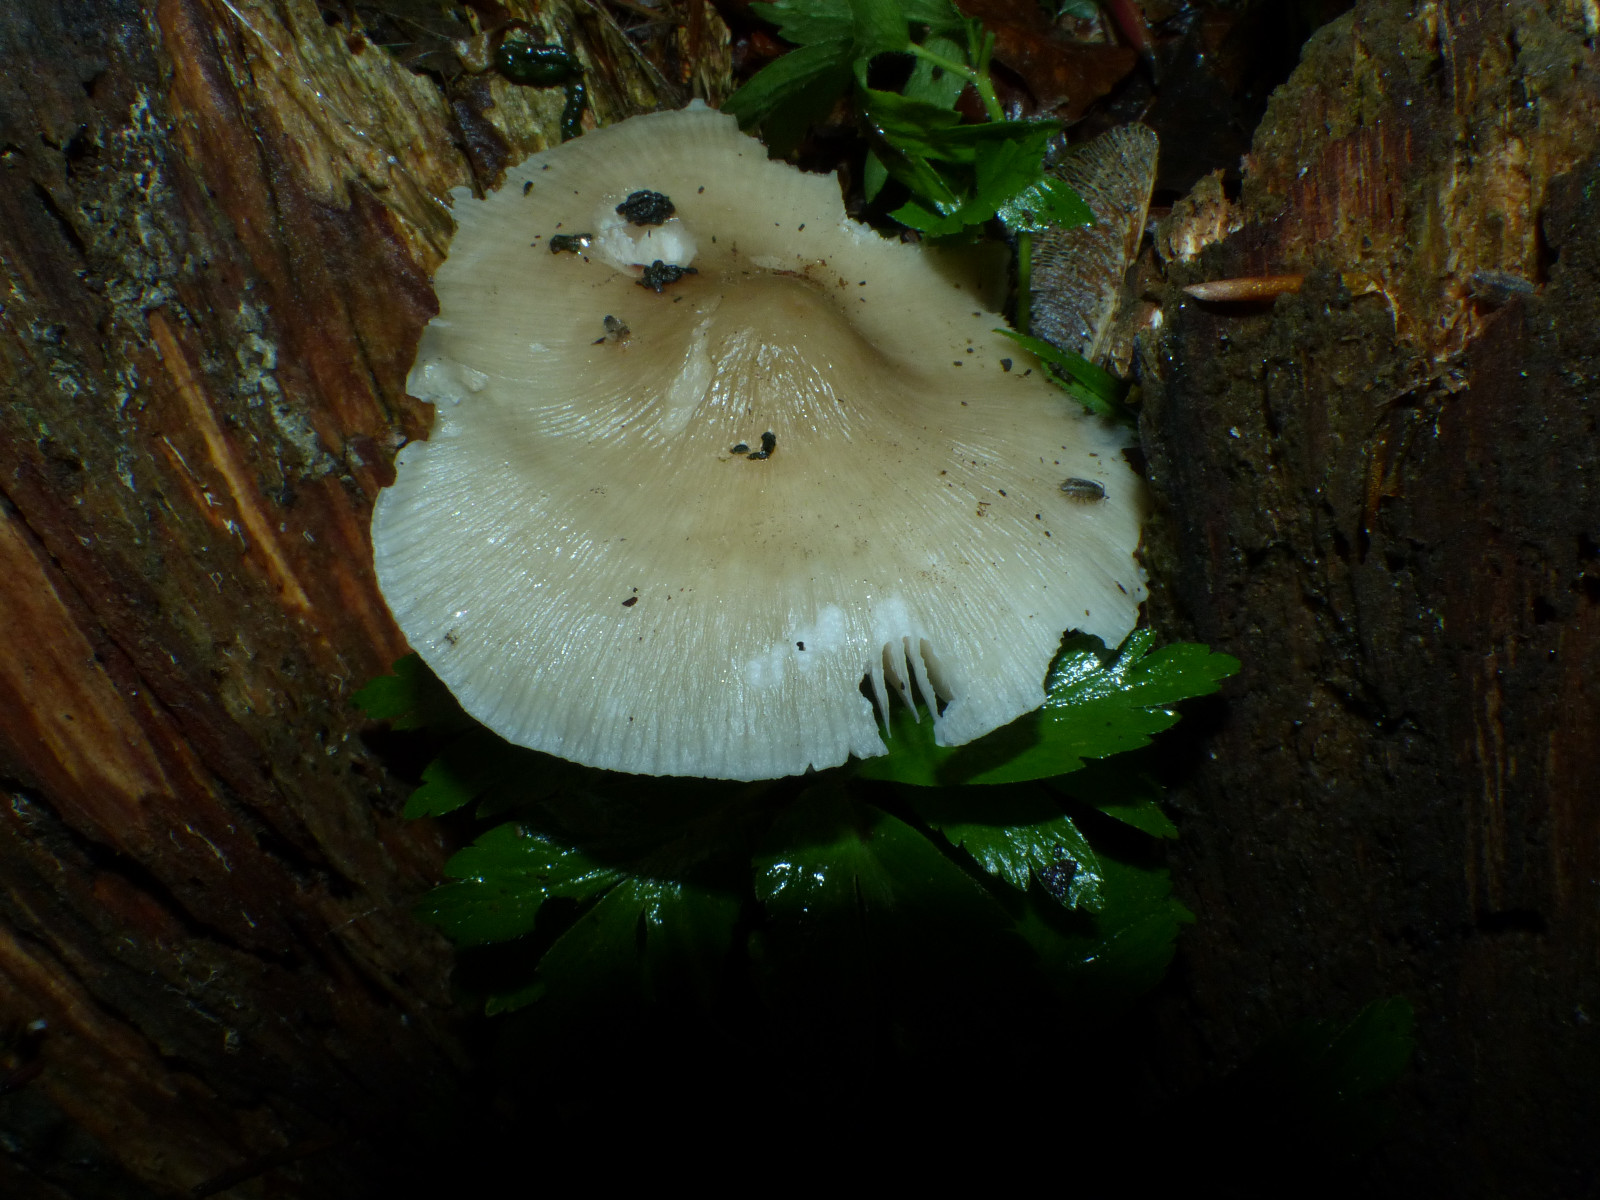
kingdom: Fungi
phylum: Basidiomycota
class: Agaricomycetes
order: Agaricales
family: Mycenaceae
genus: Mycena
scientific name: Mycena galericulata
